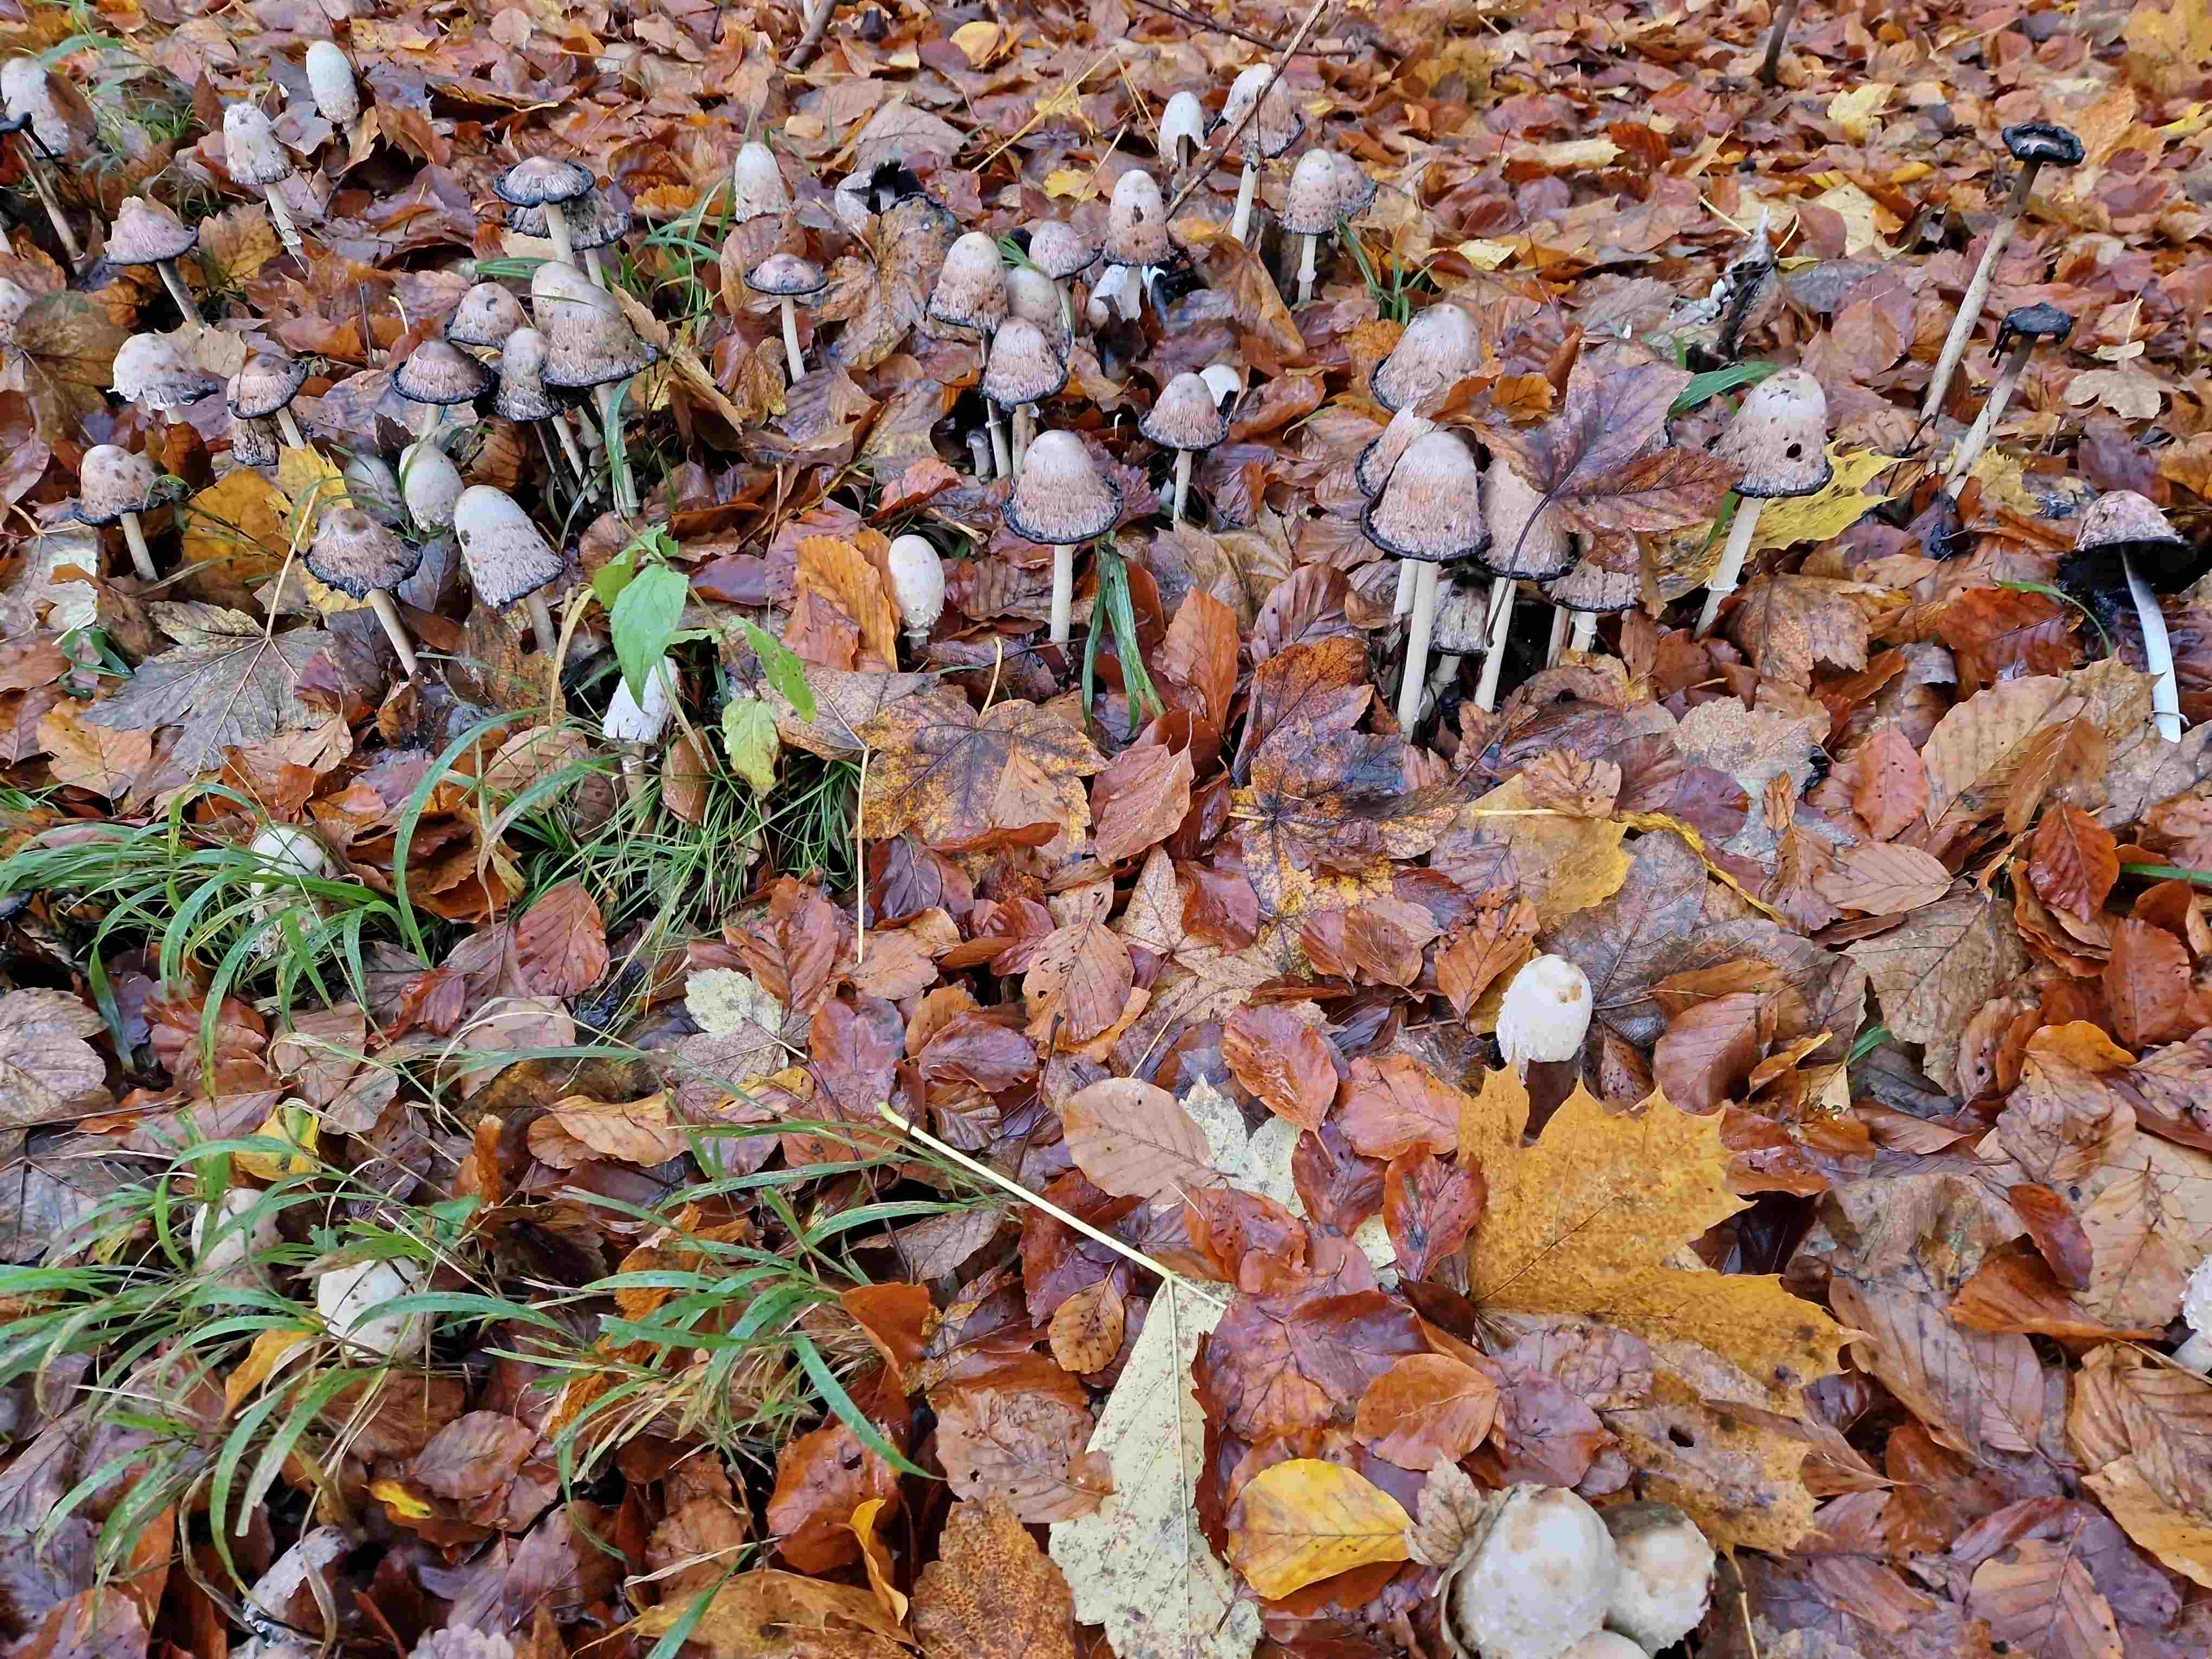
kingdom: Fungi
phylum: Basidiomycota
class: Agaricomycetes
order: Agaricales
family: Agaricaceae
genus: Coprinus
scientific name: Coprinus comatus
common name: stor parykhat
